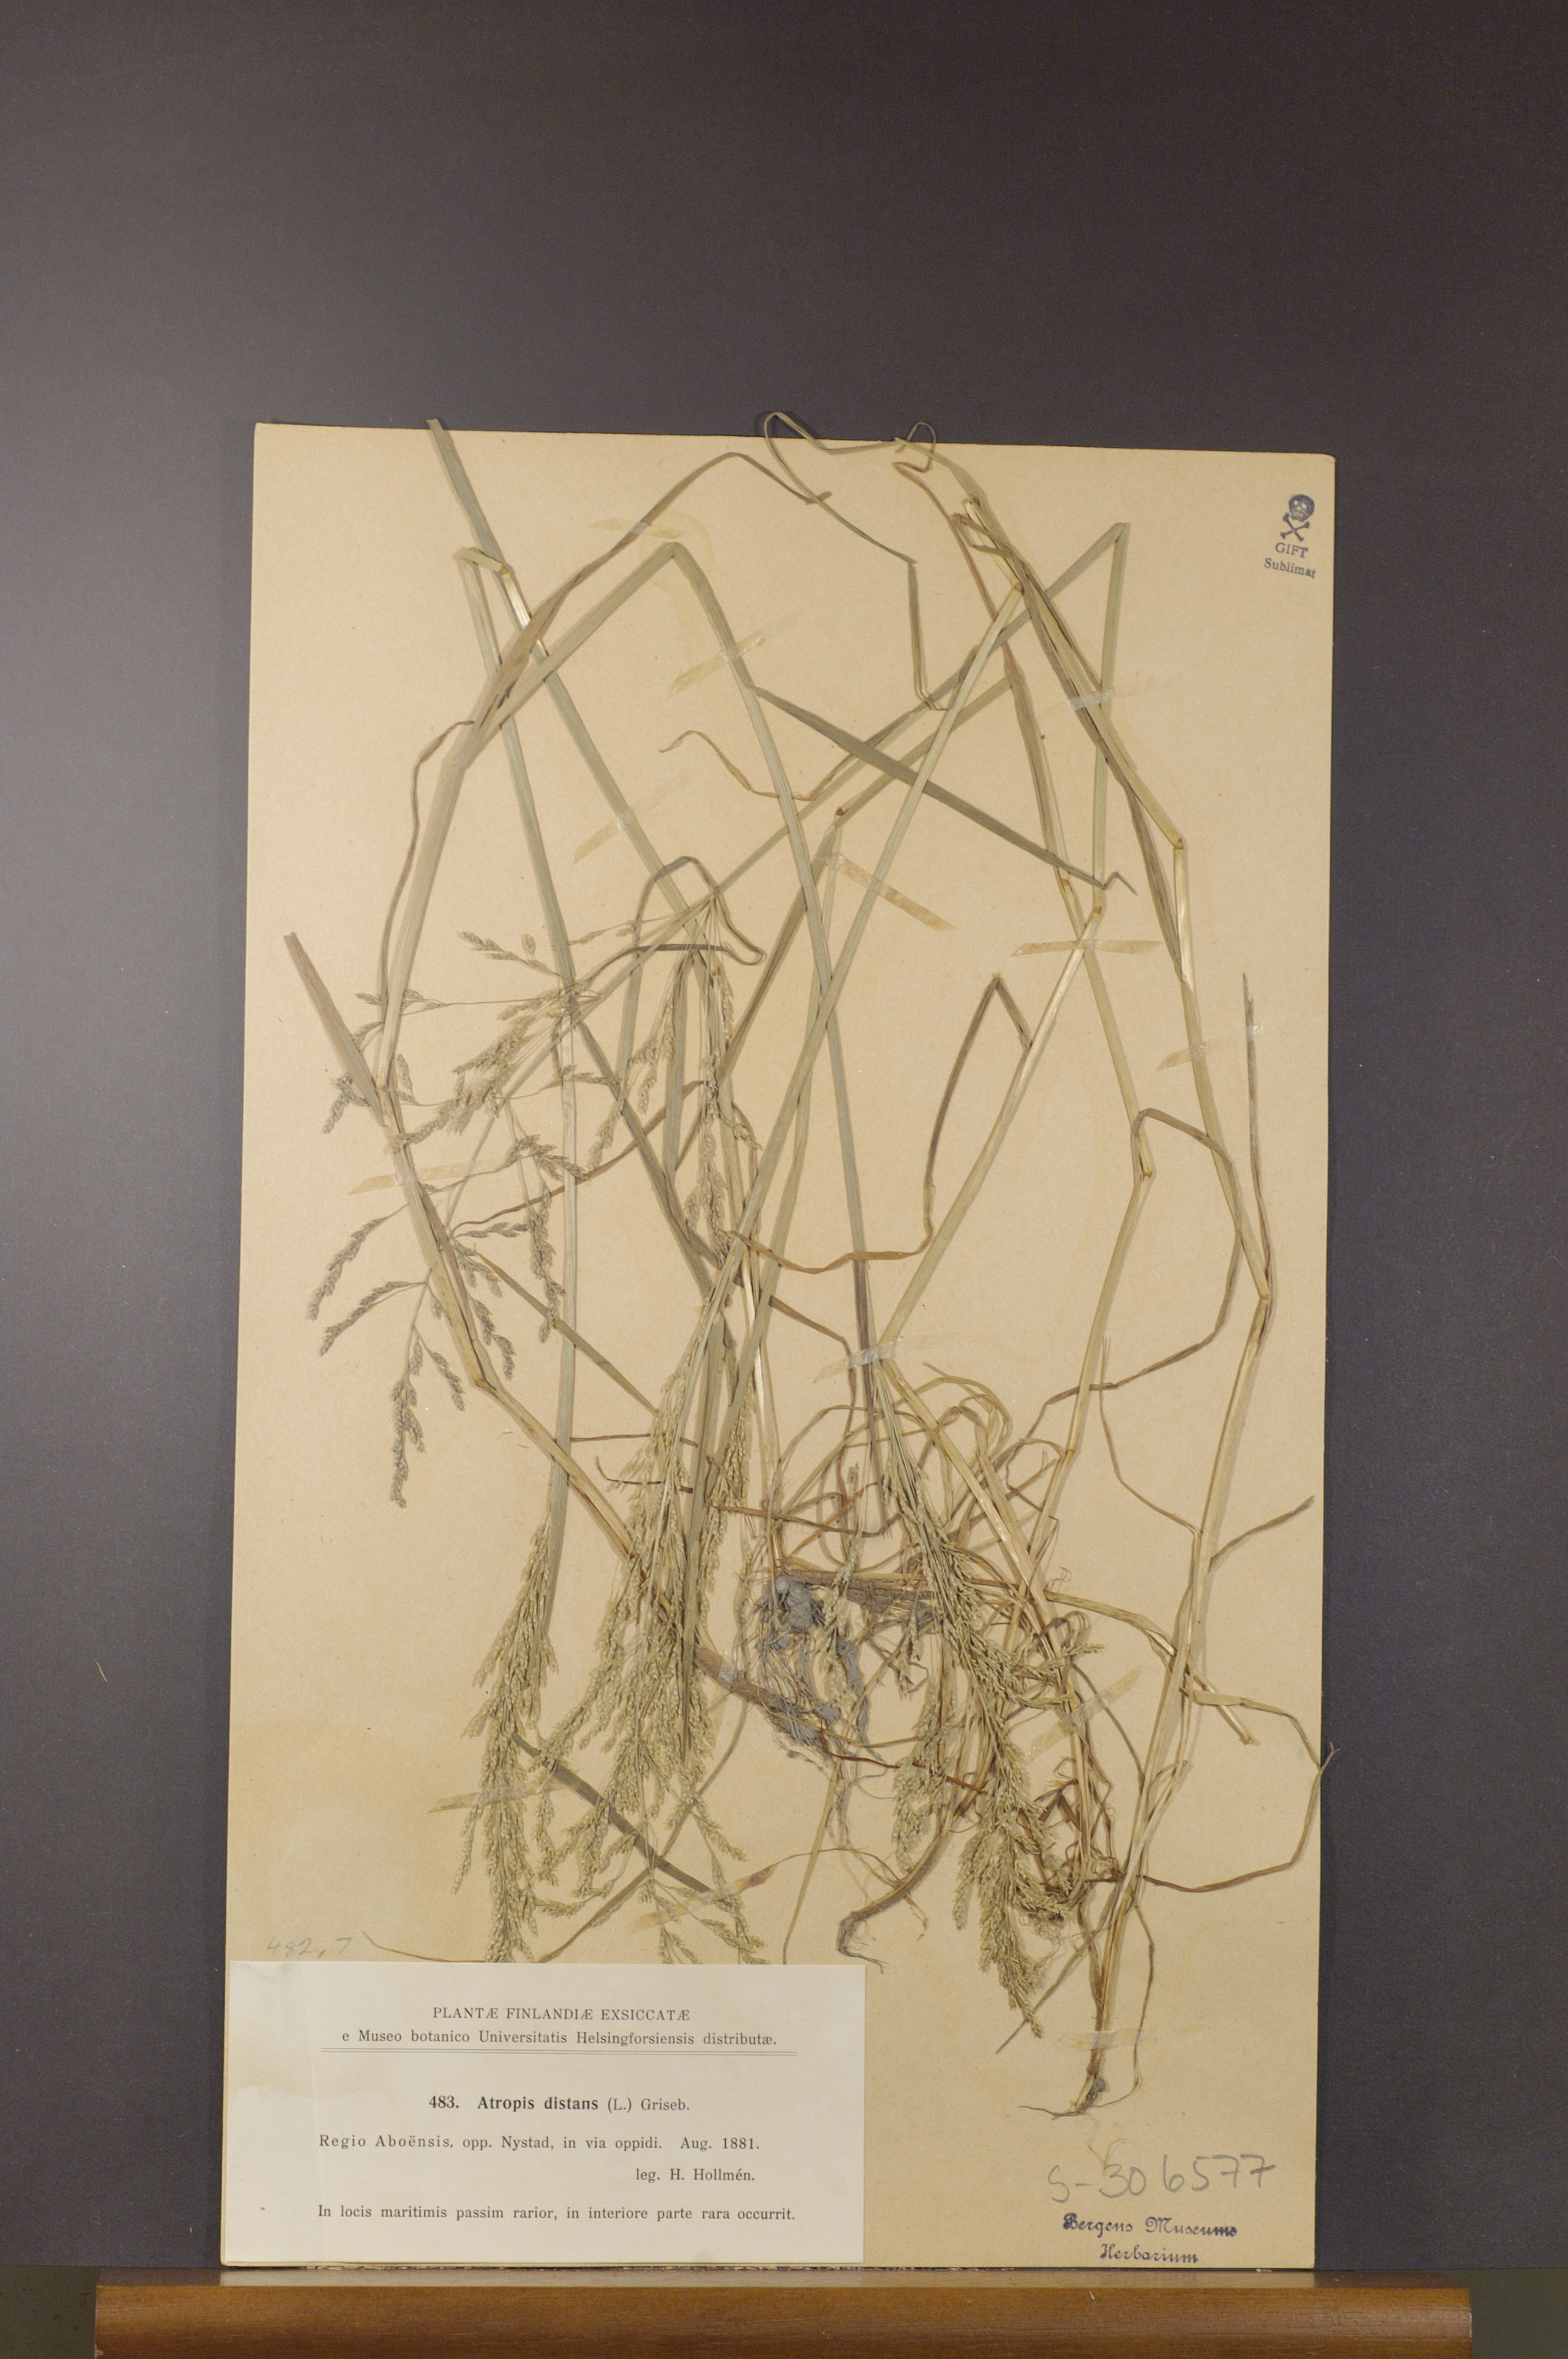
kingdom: Plantae
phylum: Tracheophyta
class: Liliopsida
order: Poales
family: Poaceae
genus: Puccinellia
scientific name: Puccinellia distans
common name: Weeping alkaligrass
